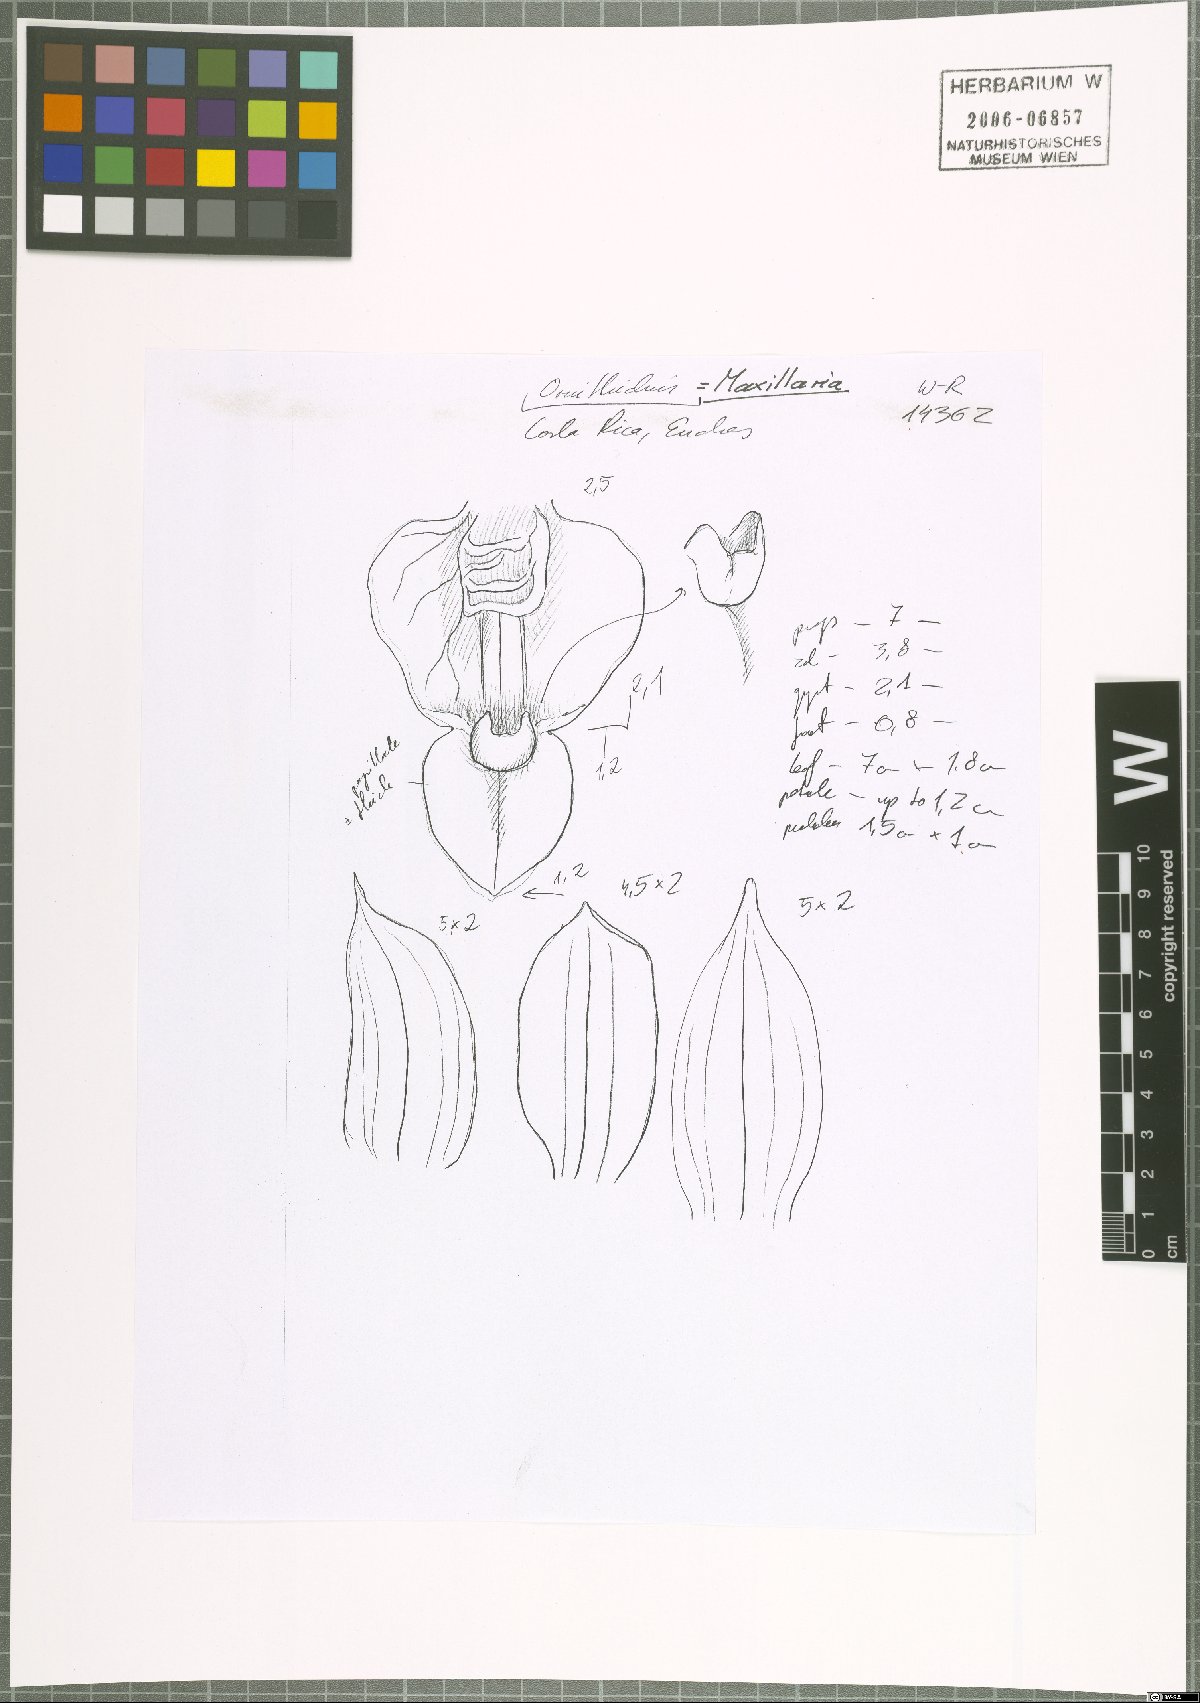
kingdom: Plantae
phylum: Tracheophyta
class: Liliopsida
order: Asparagales
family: Orchidaceae
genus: Maxillaria
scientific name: Maxillaria
